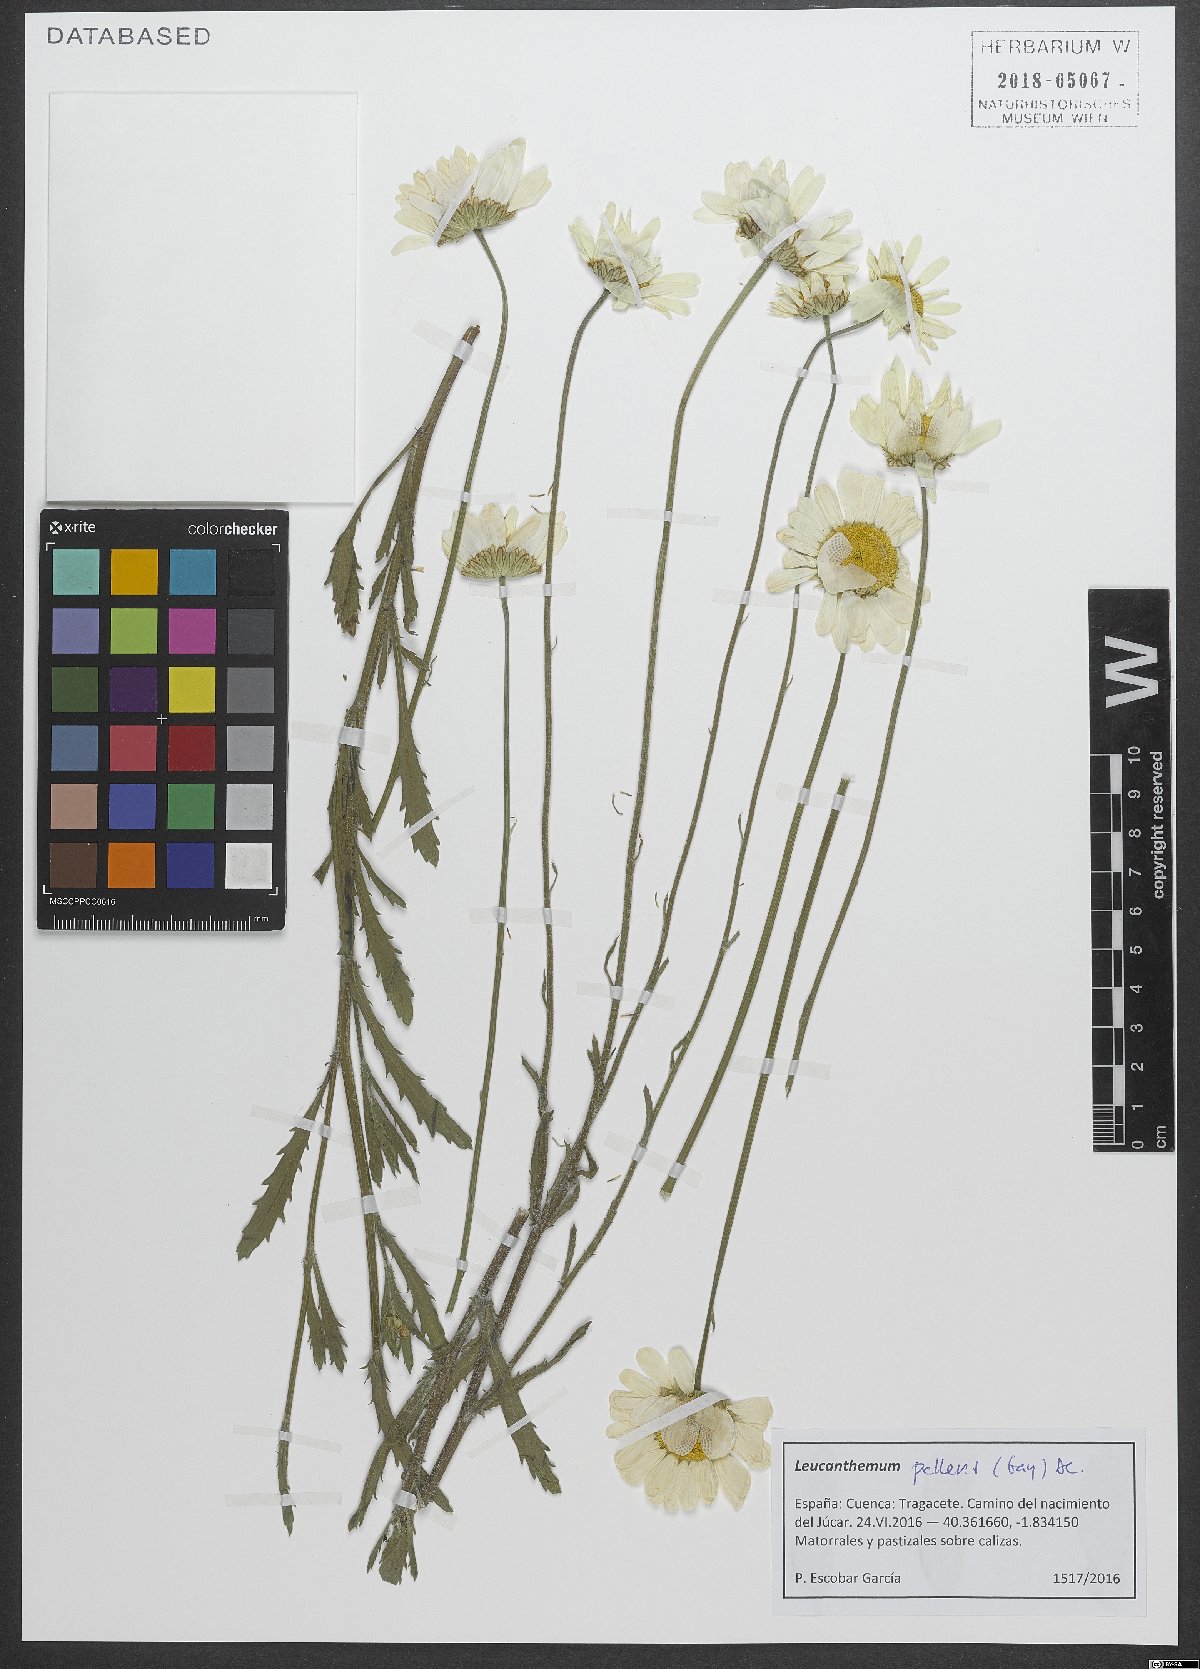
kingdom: Plantae
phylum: Tracheophyta
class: Magnoliopsida
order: Asterales
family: Asteraceae
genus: Leucanthemum
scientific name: Leucanthemum pallens
